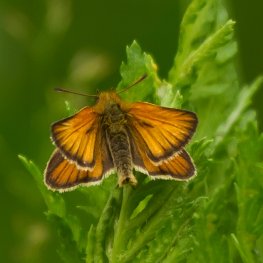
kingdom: Animalia
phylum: Arthropoda
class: Insecta
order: Lepidoptera
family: Hesperiidae
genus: Thymelicus
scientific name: Thymelicus lineola
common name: European Skipper
